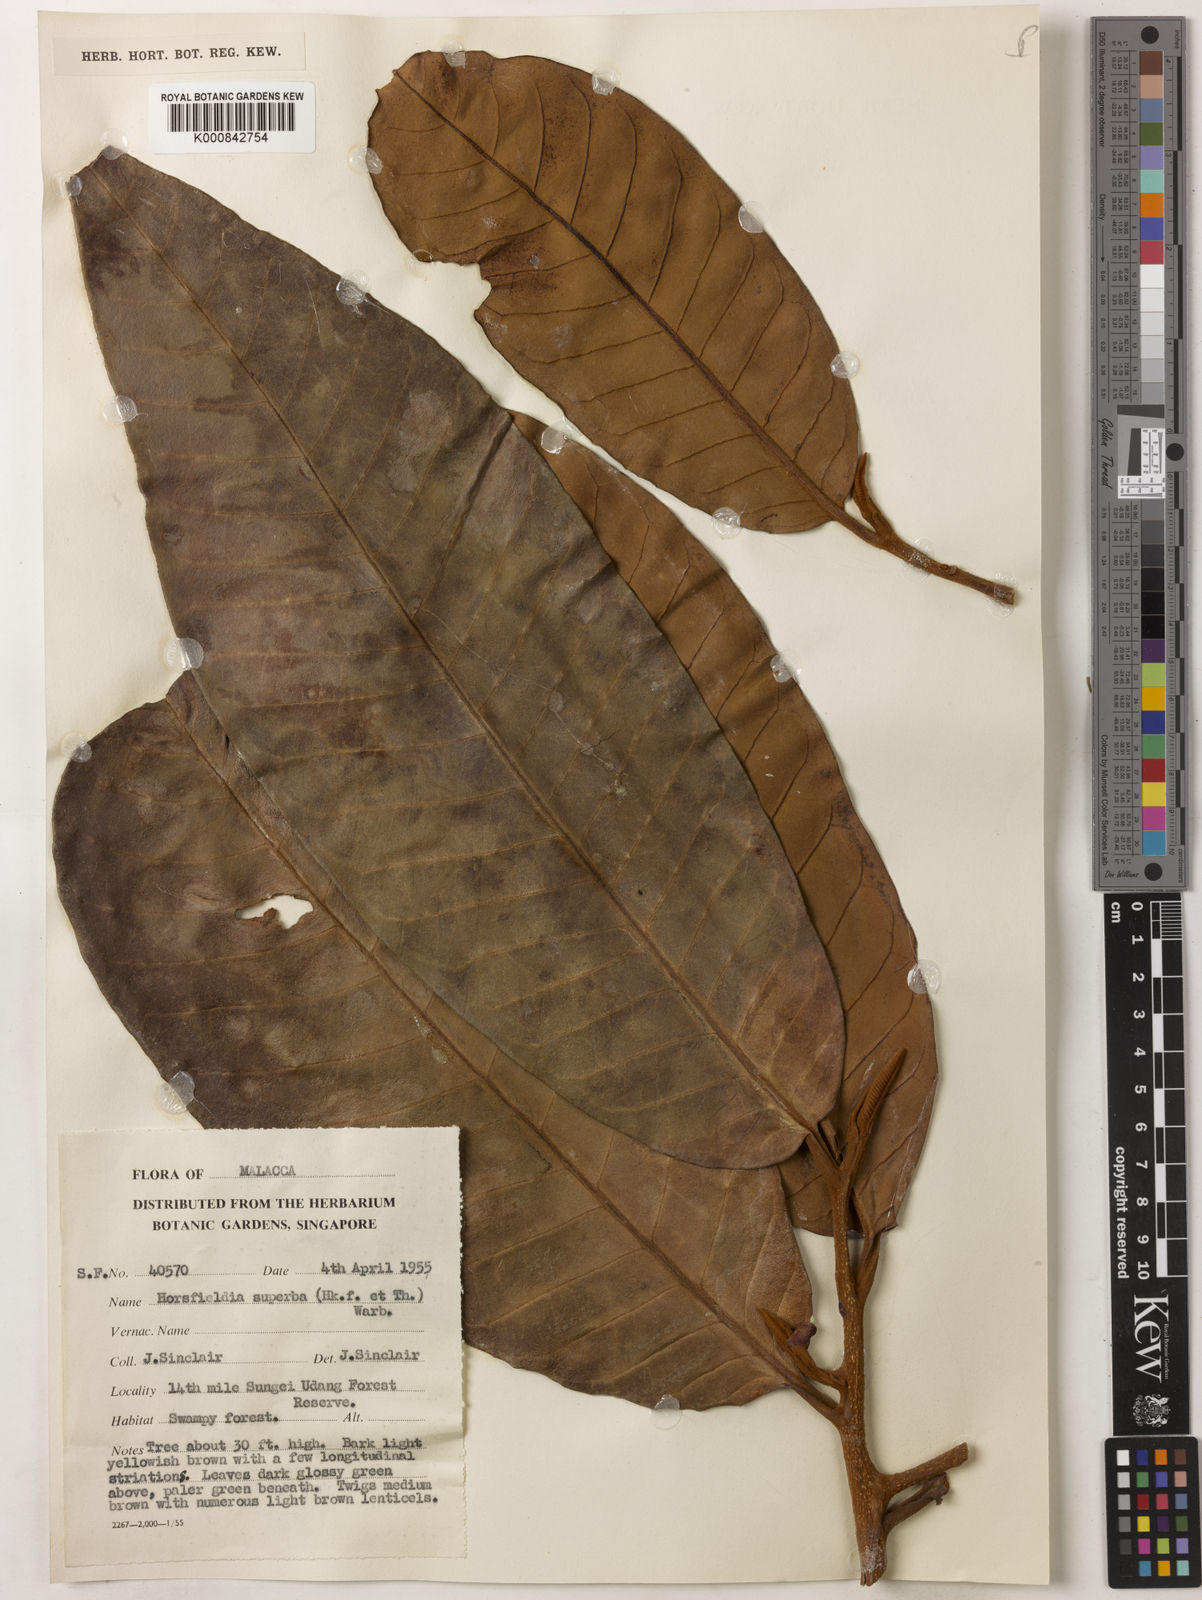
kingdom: Plantae
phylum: Tracheophyta
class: Magnoliopsida
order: Magnoliales
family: Myristicaceae
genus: Horsfieldia
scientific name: Horsfieldia superba
